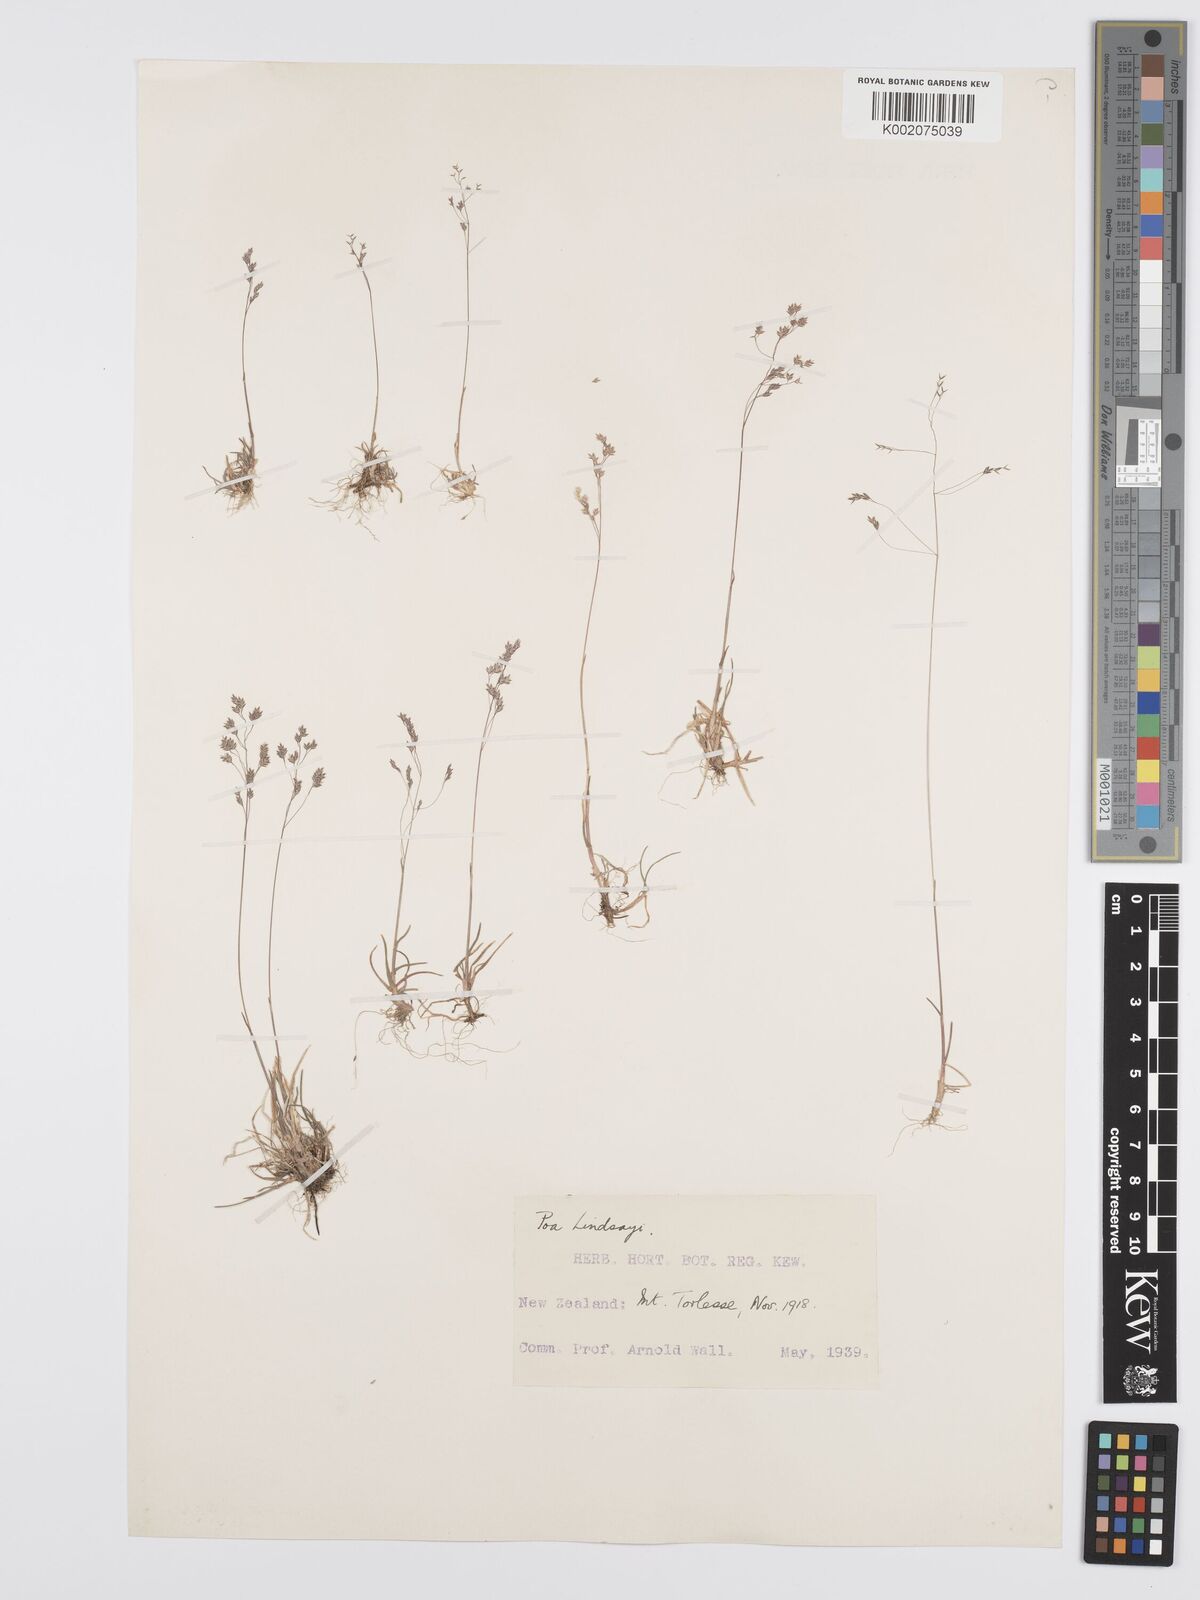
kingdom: Plantae
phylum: Tracheophyta
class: Liliopsida
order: Poales
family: Poaceae
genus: Poa
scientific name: Poa lindsayi
